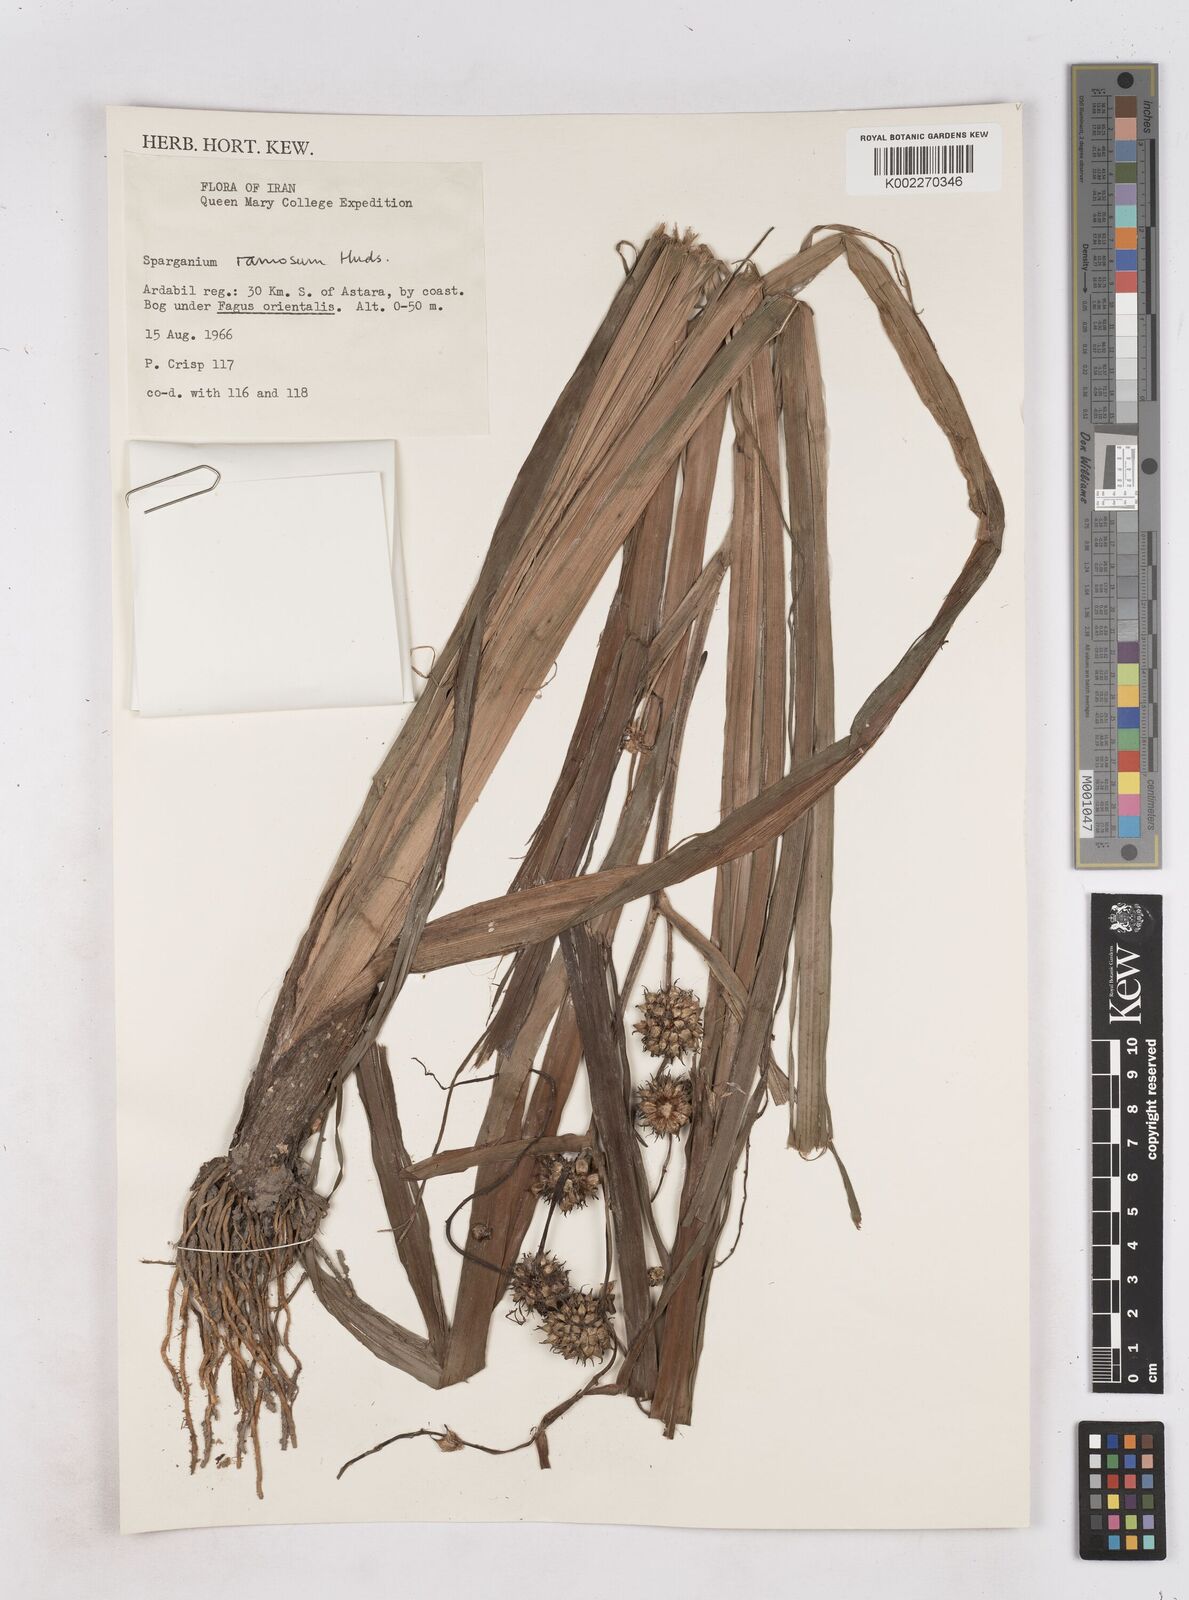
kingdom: Plantae
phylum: Tracheophyta
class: Liliopsida
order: Poales
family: Typhaceae
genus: Sparganium
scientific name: Sparganium erectum
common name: Branched bur-reed
